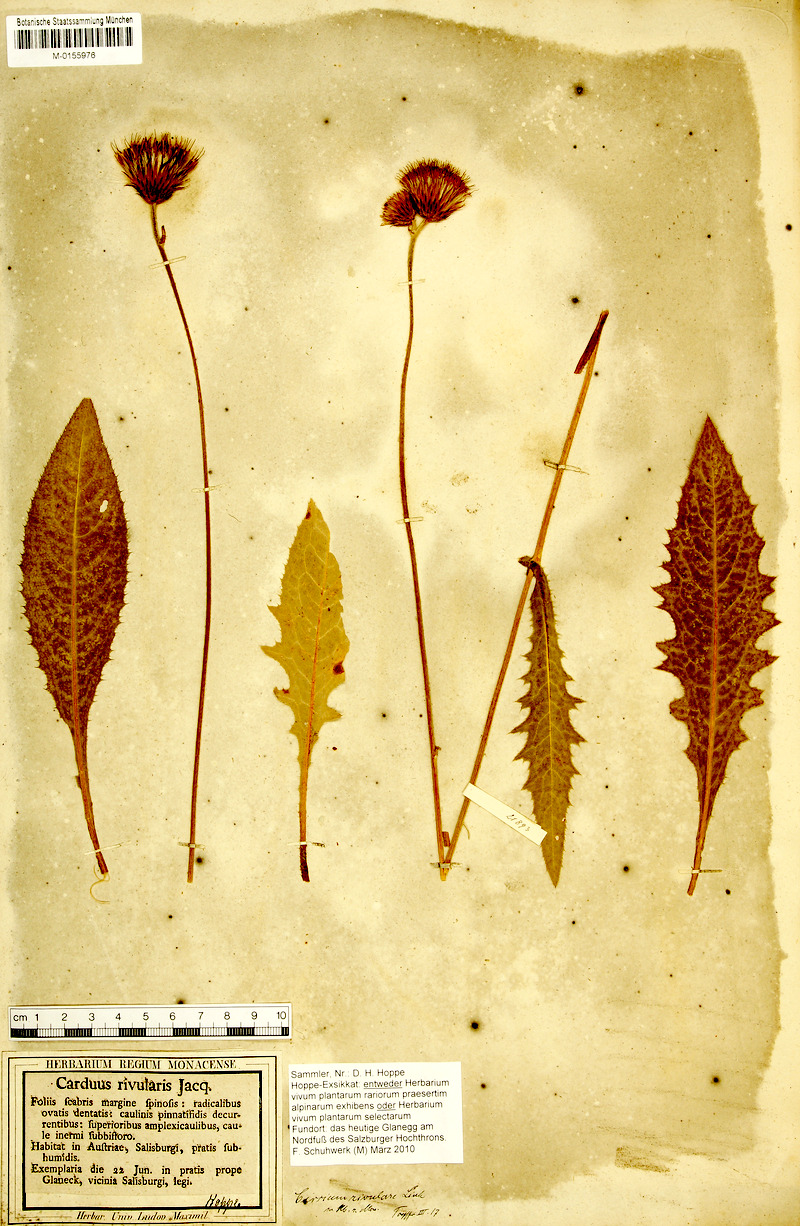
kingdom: Plantae
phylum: Tracheophyta
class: Magnoliopsida
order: Asterales
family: Asteraceae
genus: Cirsium
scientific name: Cirsium rivulare
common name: Brook thistle
